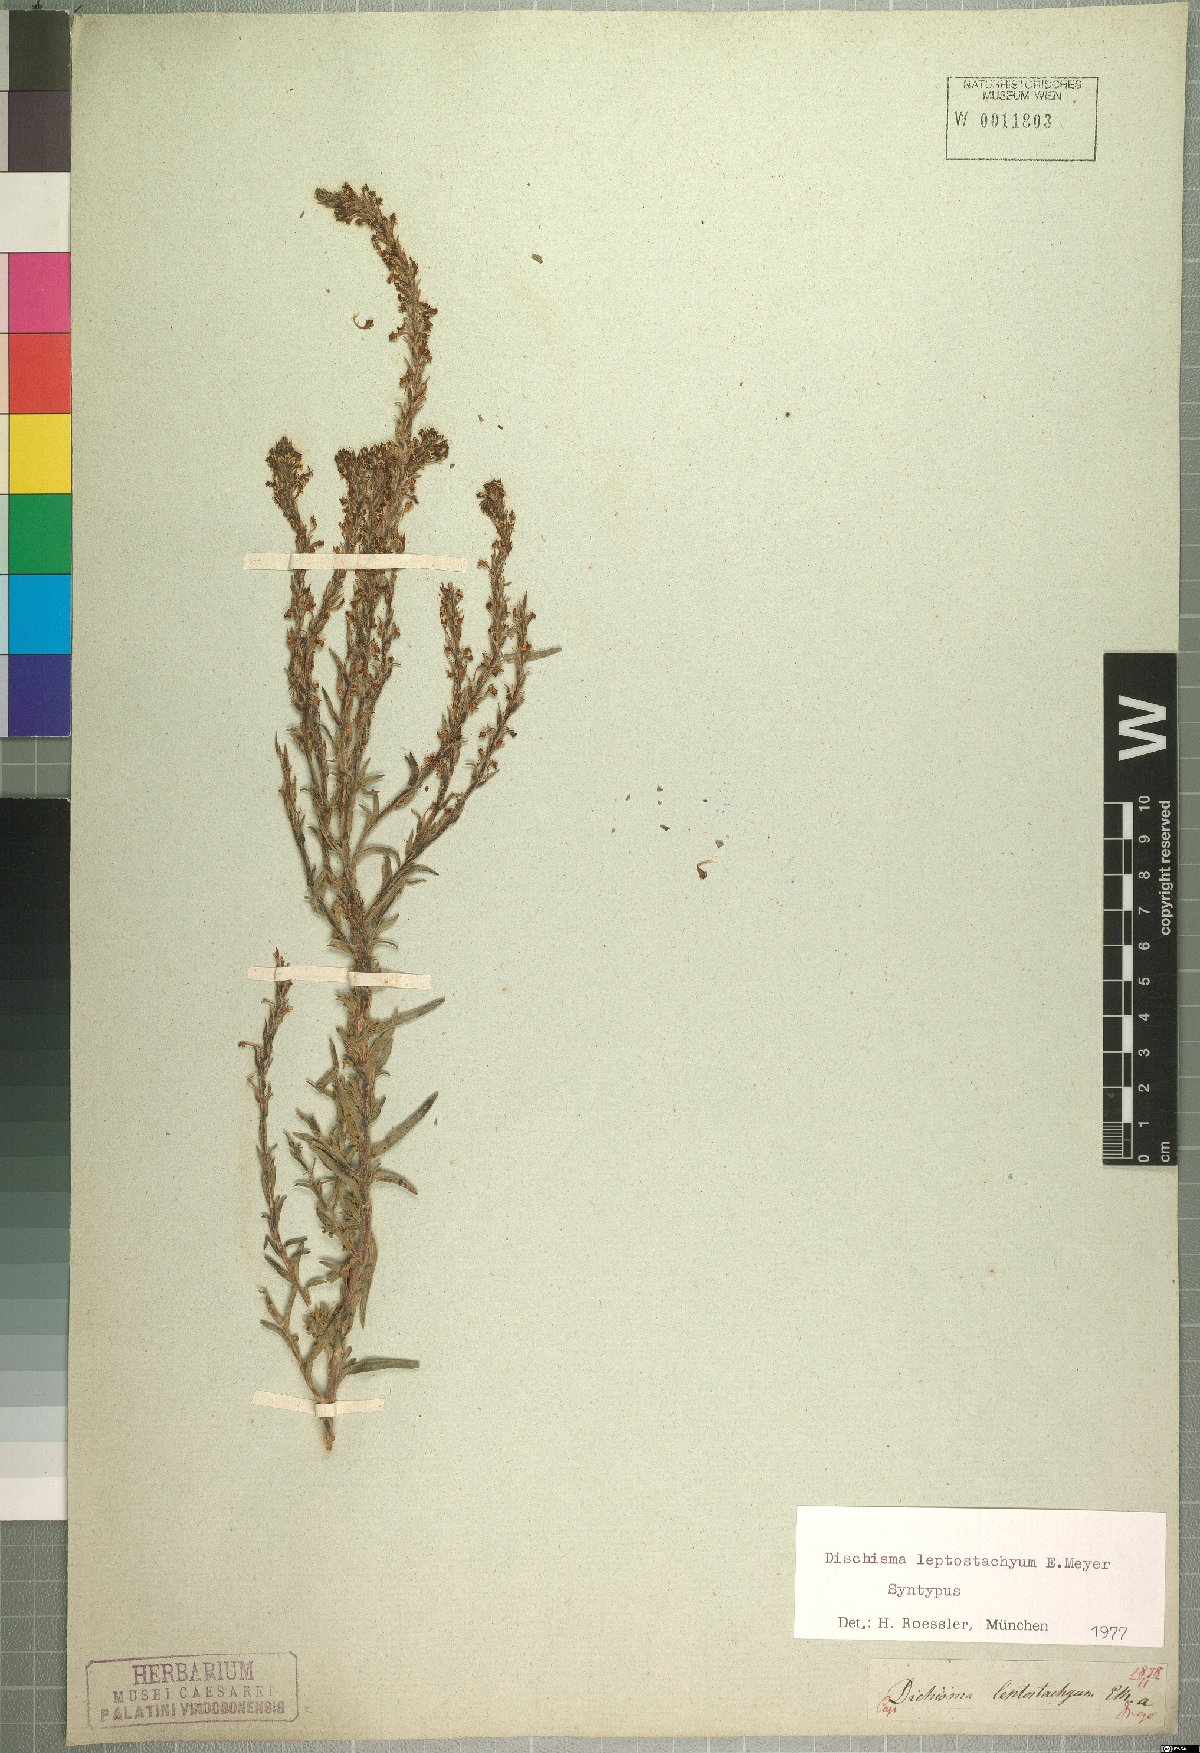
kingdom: Plantae
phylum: Tracheophyta
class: Magnoliopsida
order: Lamiales
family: Scrophulariaceae
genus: Dischisma
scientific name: Dischisma leptostachyum
